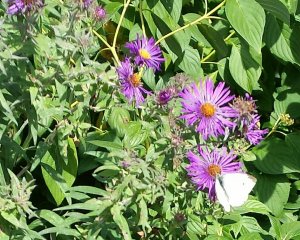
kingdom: Animalia
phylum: Arthropoda
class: Insecta
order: Lepidoptera
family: Pieridae
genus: Pieris
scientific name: Pieris rapae
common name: Cabbage White
